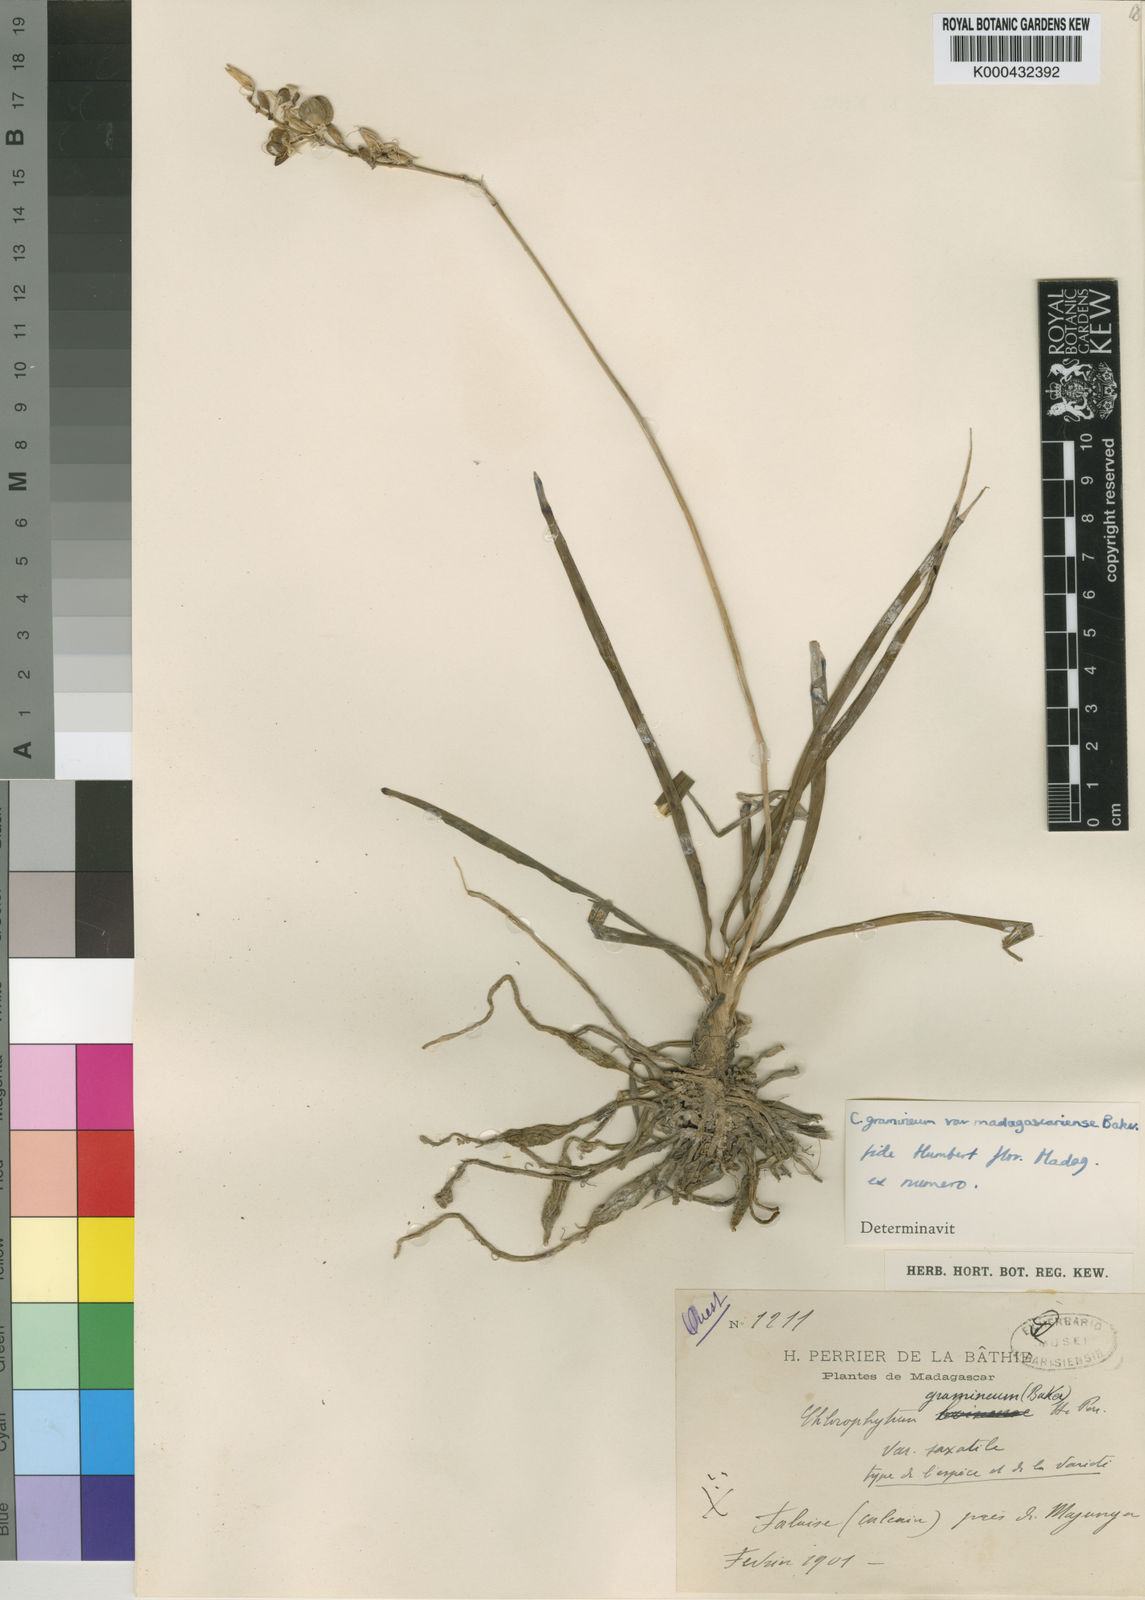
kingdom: Plantae
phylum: Tracheophyta
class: Liliopsida
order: Asparagales
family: Asparagaceae
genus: Chlorophytum
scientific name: Chlorophytum madagascariense
